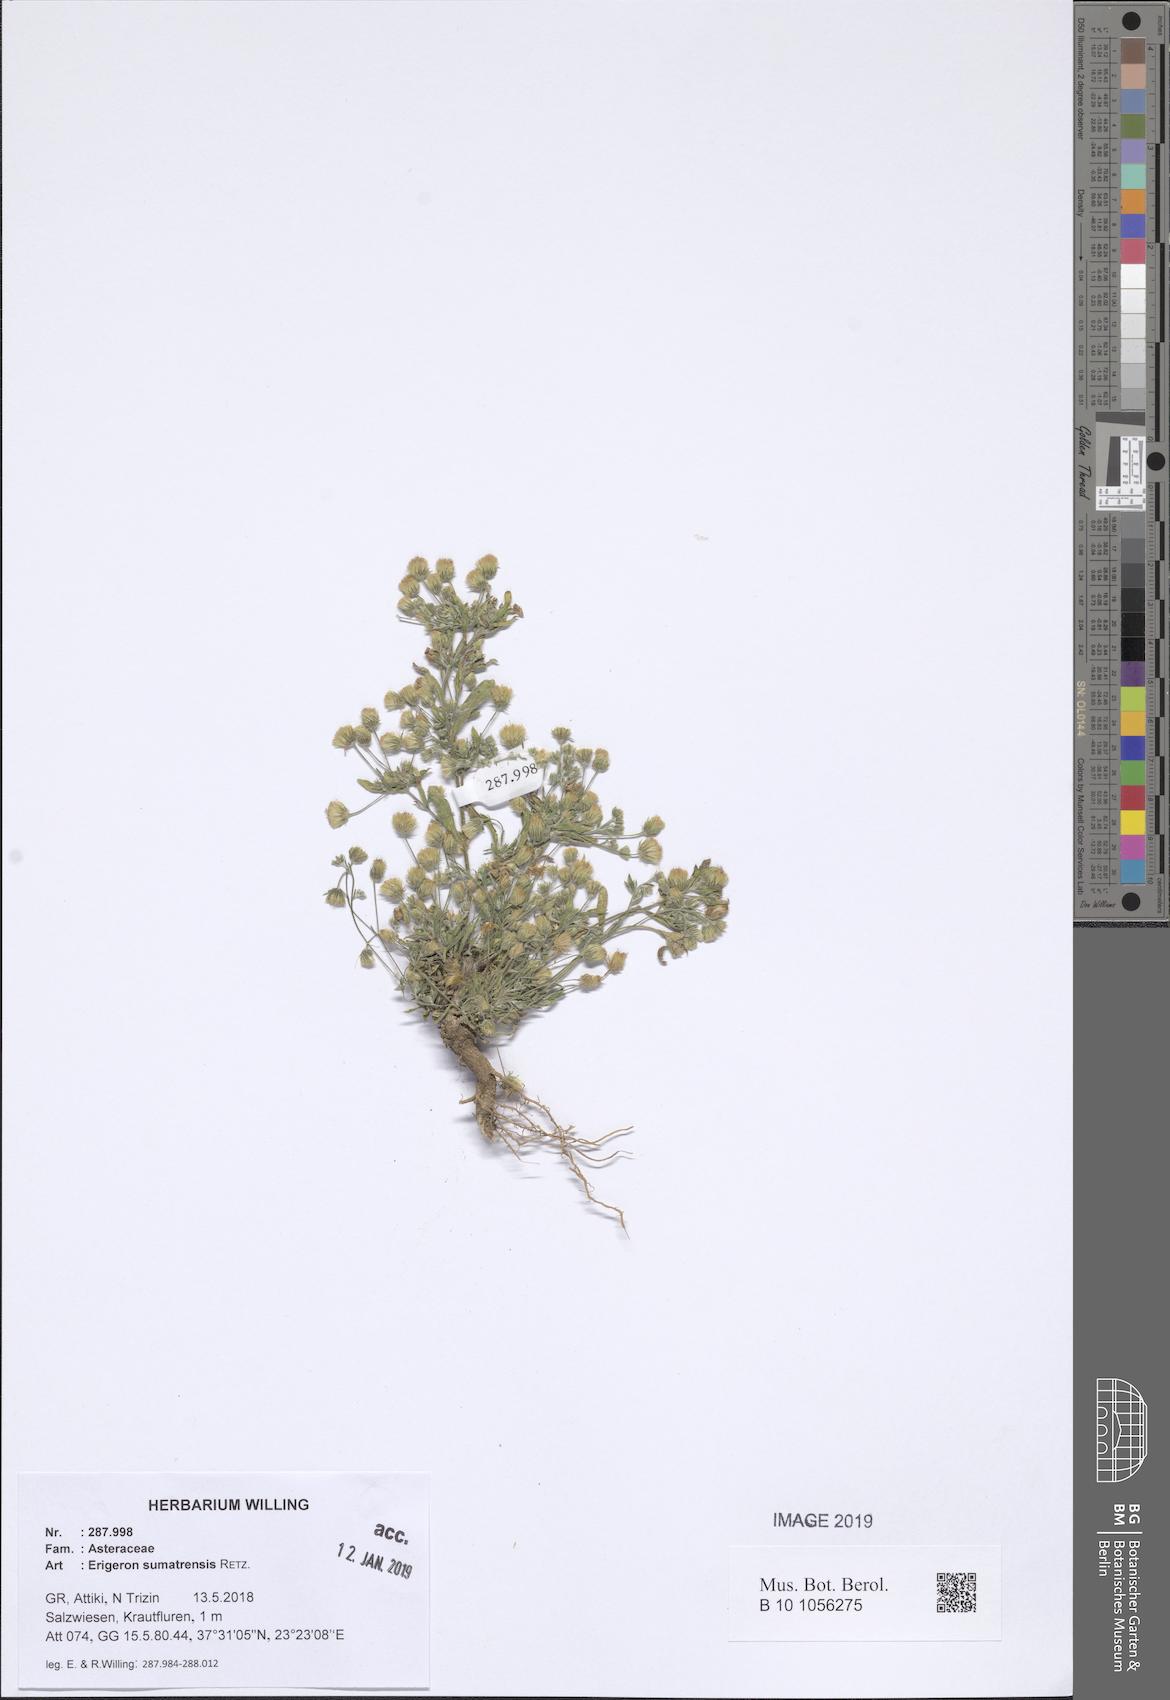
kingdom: Plantae
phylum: Tracheophyta
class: Magnoliopsida
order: Asterales
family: Asteraceae
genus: Erigeron
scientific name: Erigeron sumatrensis
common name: Daisy
